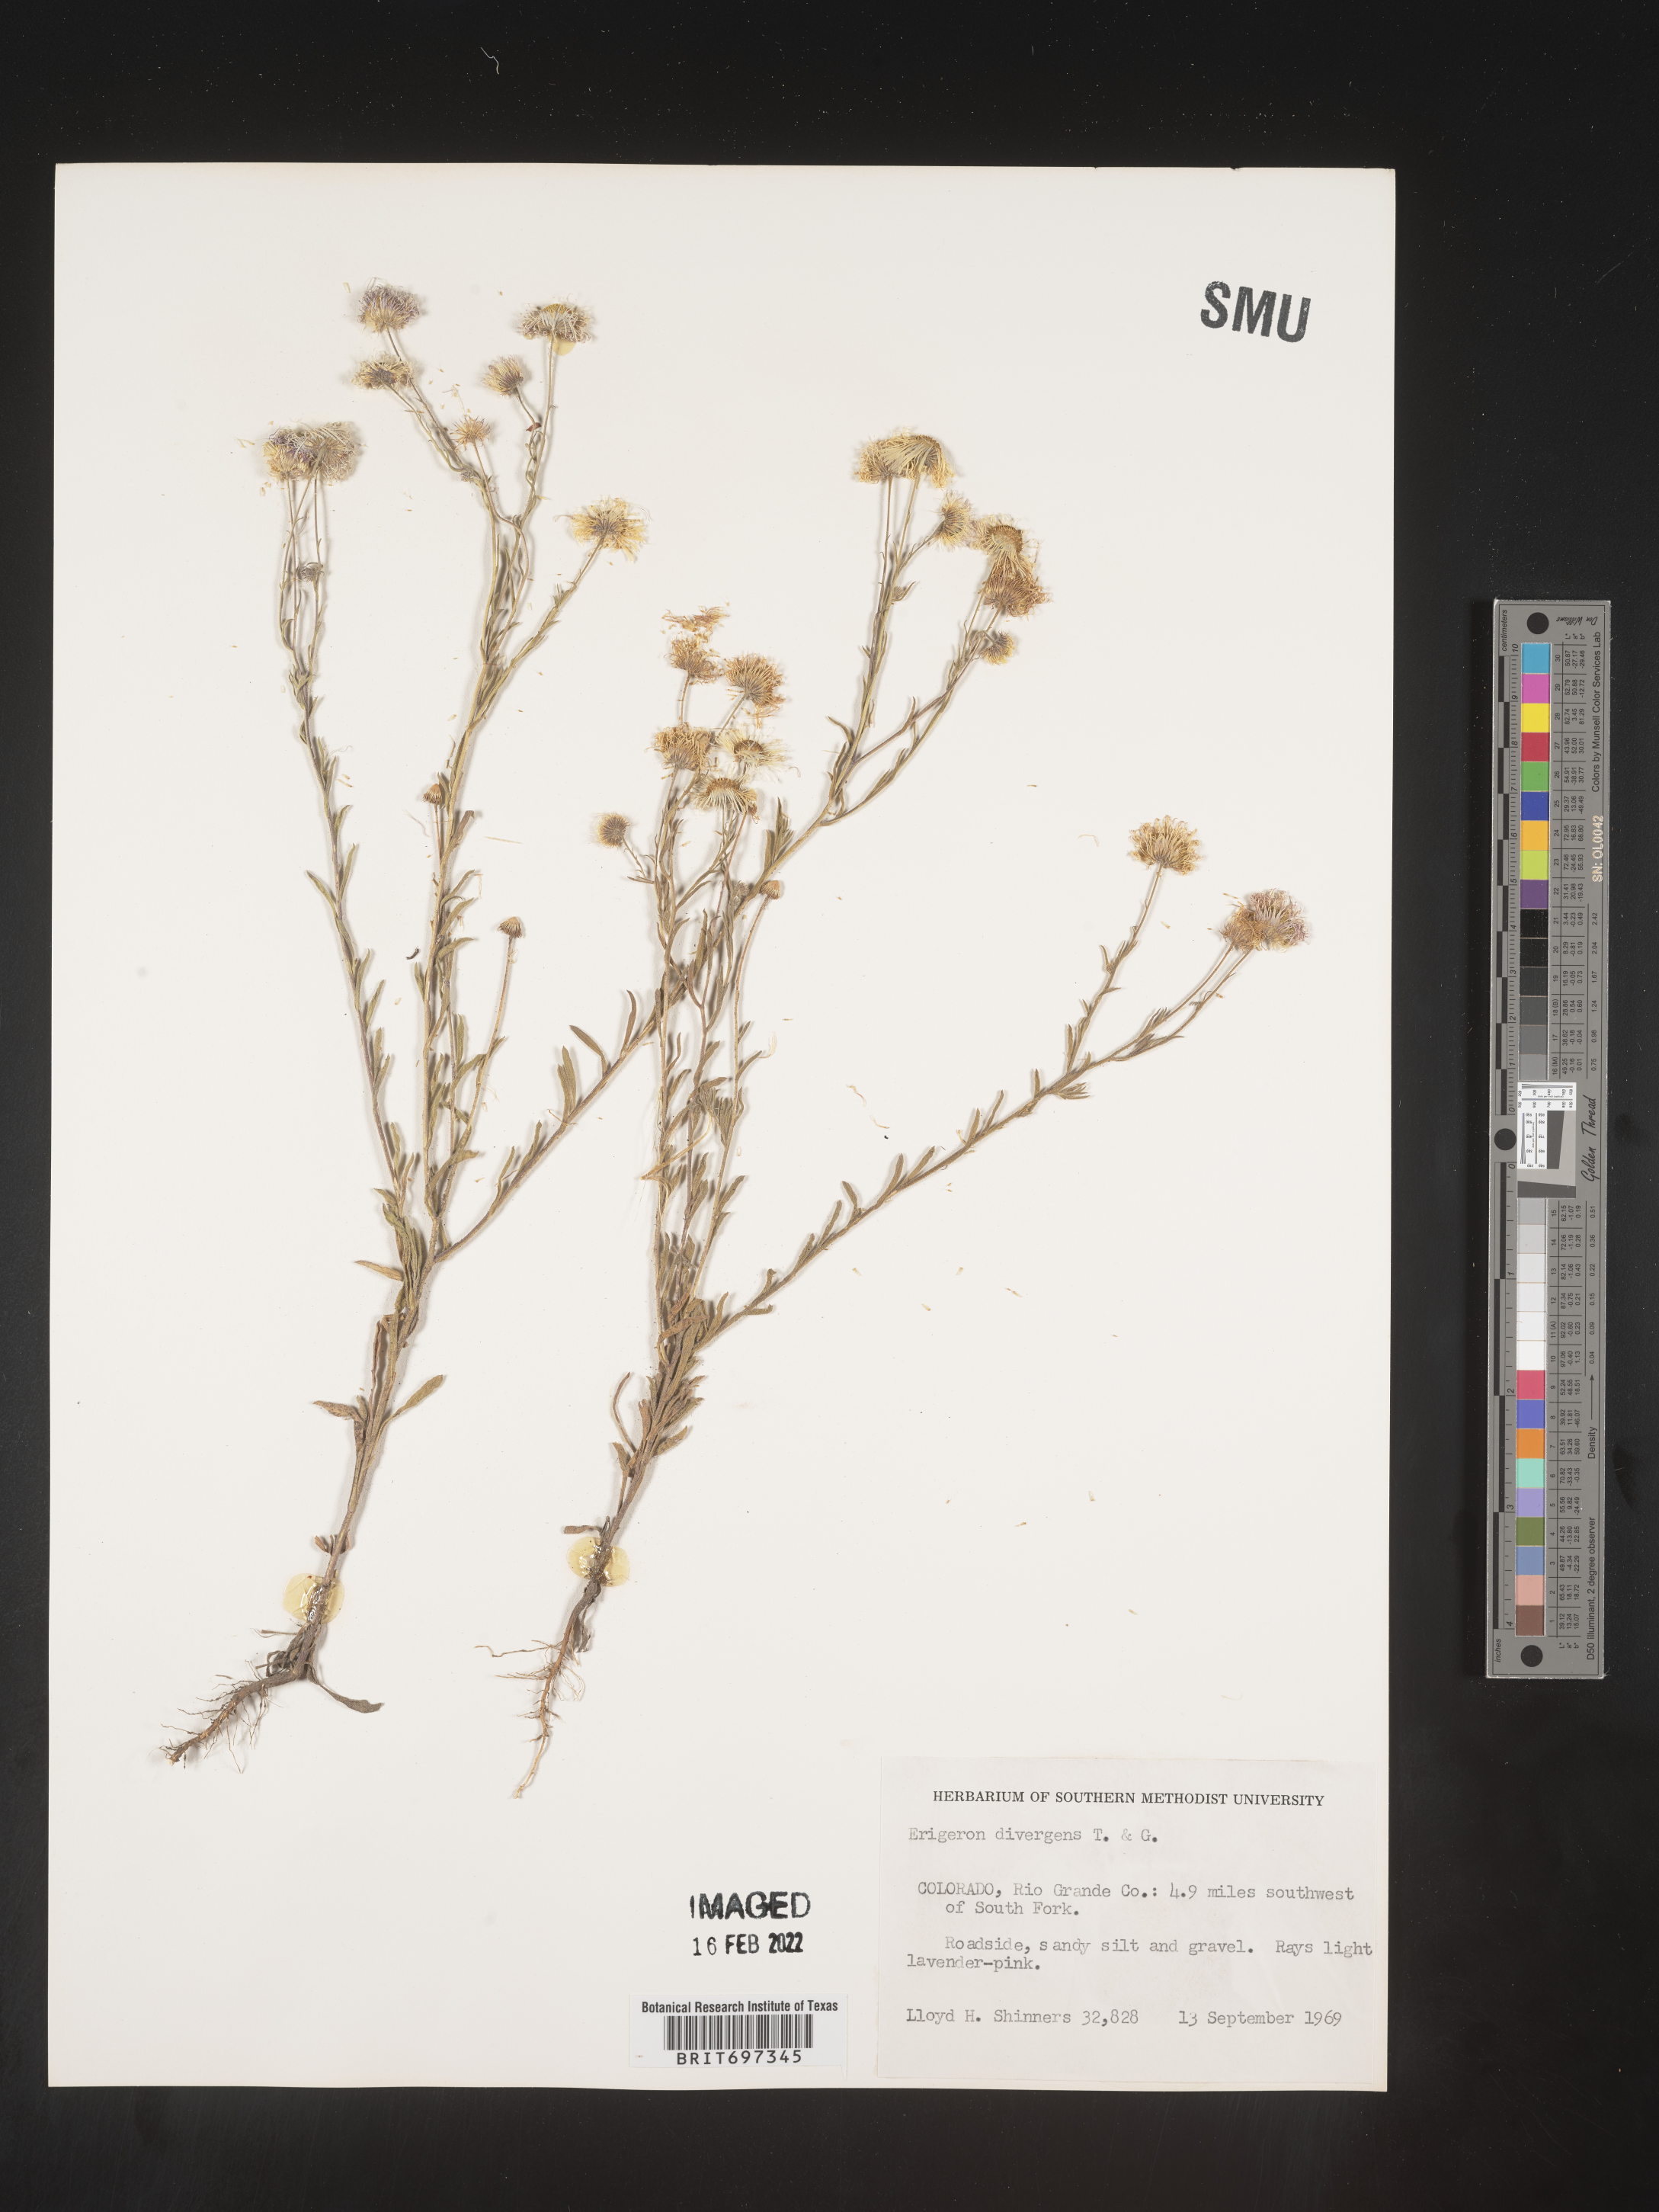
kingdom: Plantae
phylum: Tracheophyta
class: Magnoliopsida
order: Asterales
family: Asteraceae
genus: Erigeron
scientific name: Erigeron divergens
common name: Diffuse fleabane
